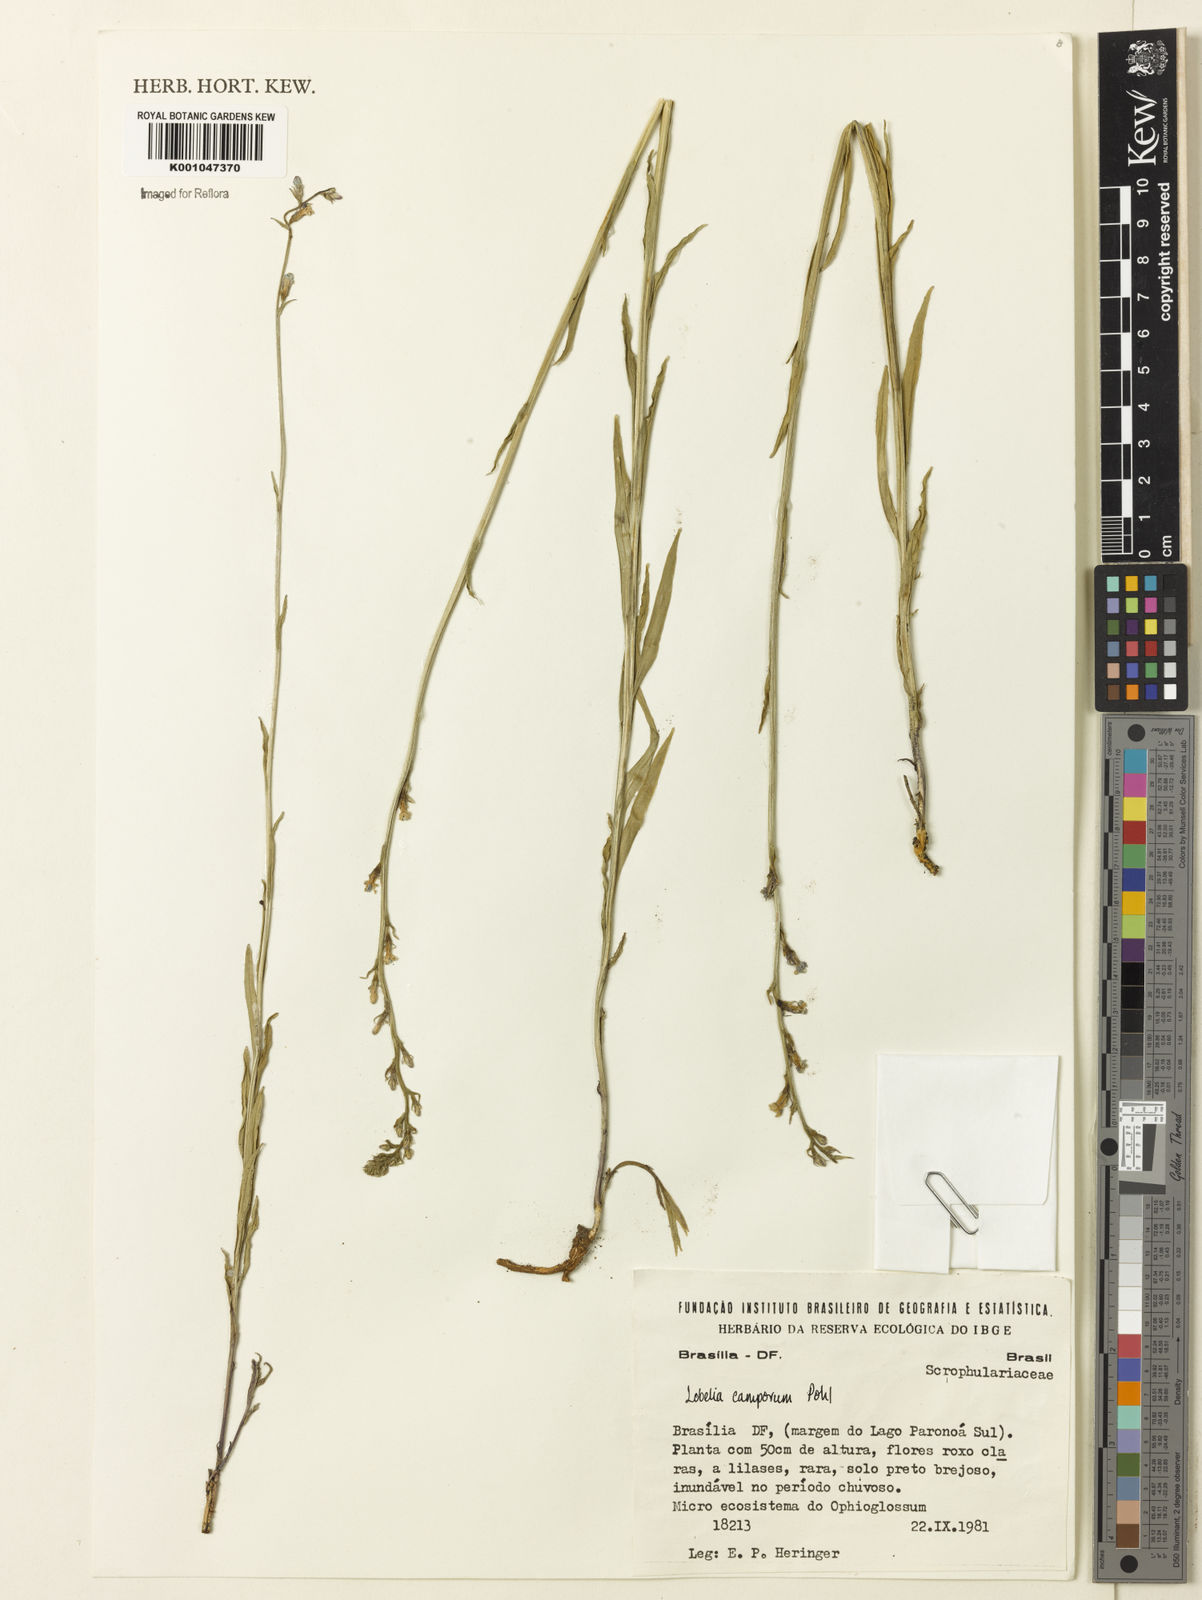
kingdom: Plantae
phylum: Tracheophyta
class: Magnoliopsida
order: Asterales
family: Campanulaceae
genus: Lobelia
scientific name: Lobelia camporum
